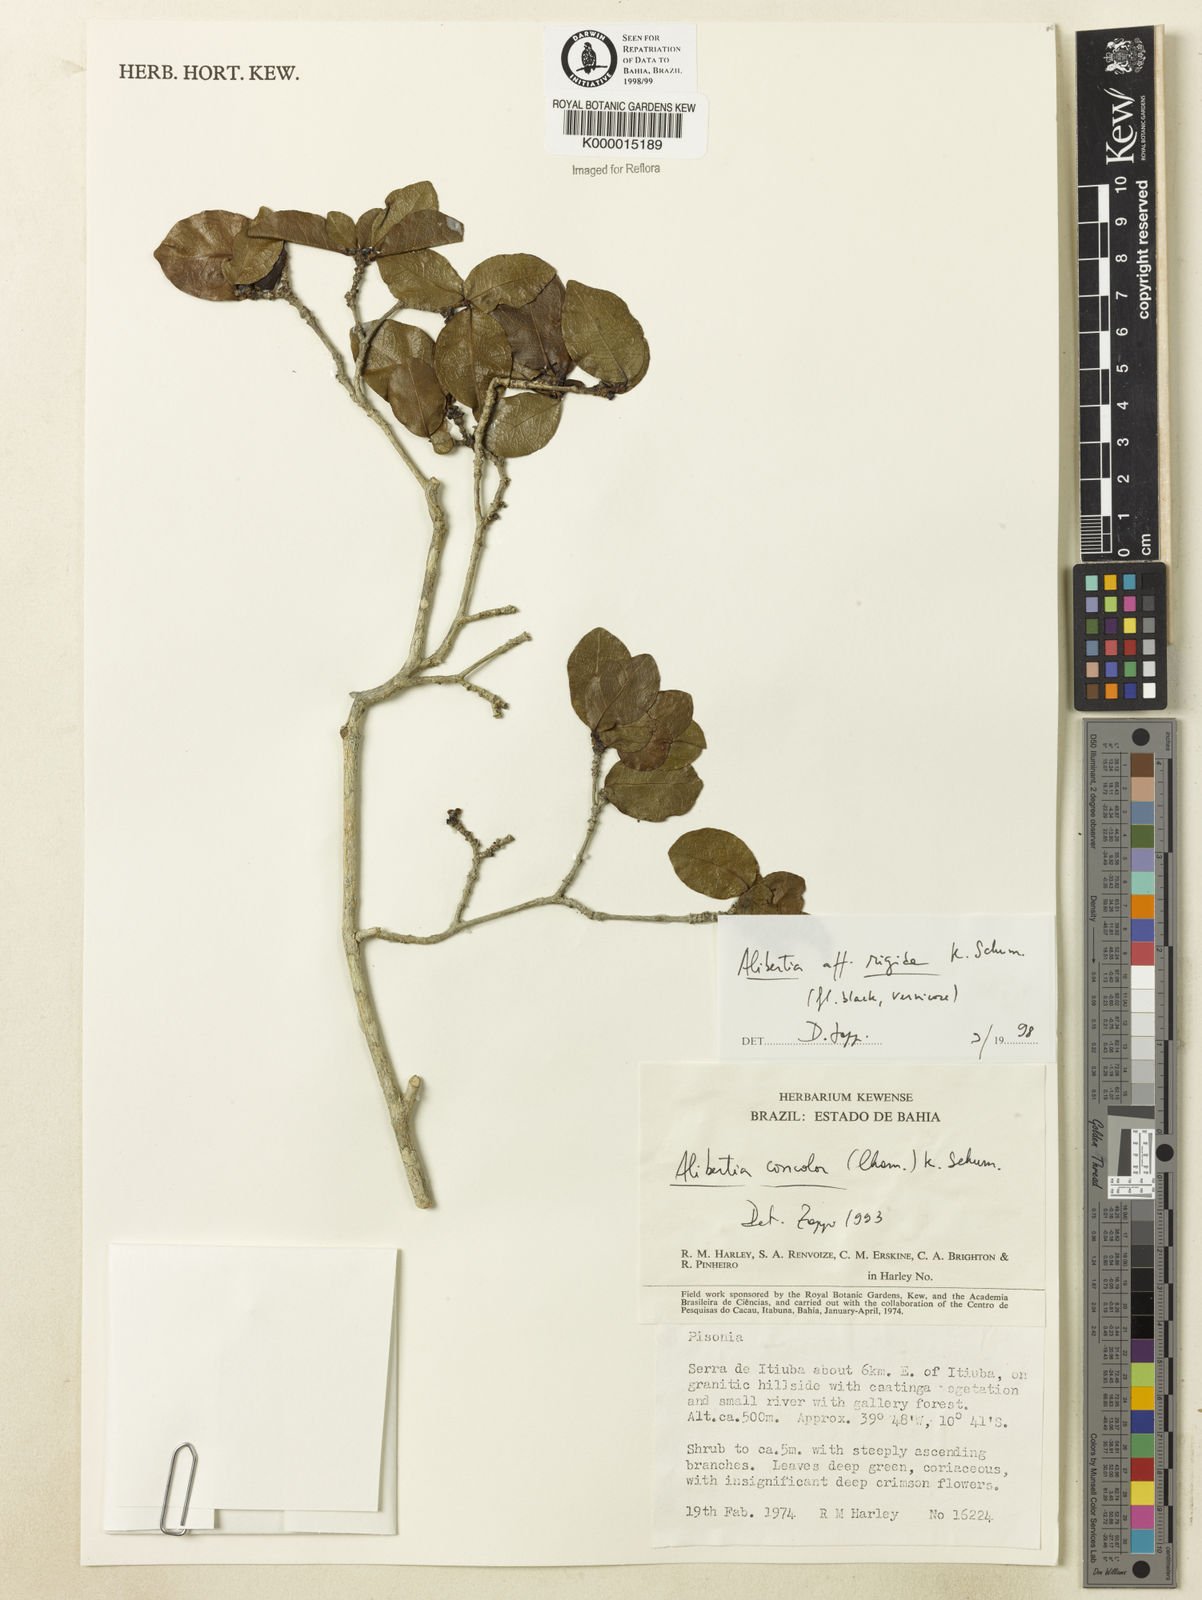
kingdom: Plantae
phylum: Tracheophyta
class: Magnoliopsida
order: Gentianales
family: Rubiaceae
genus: Cordiera
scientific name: Cordiera rigida
